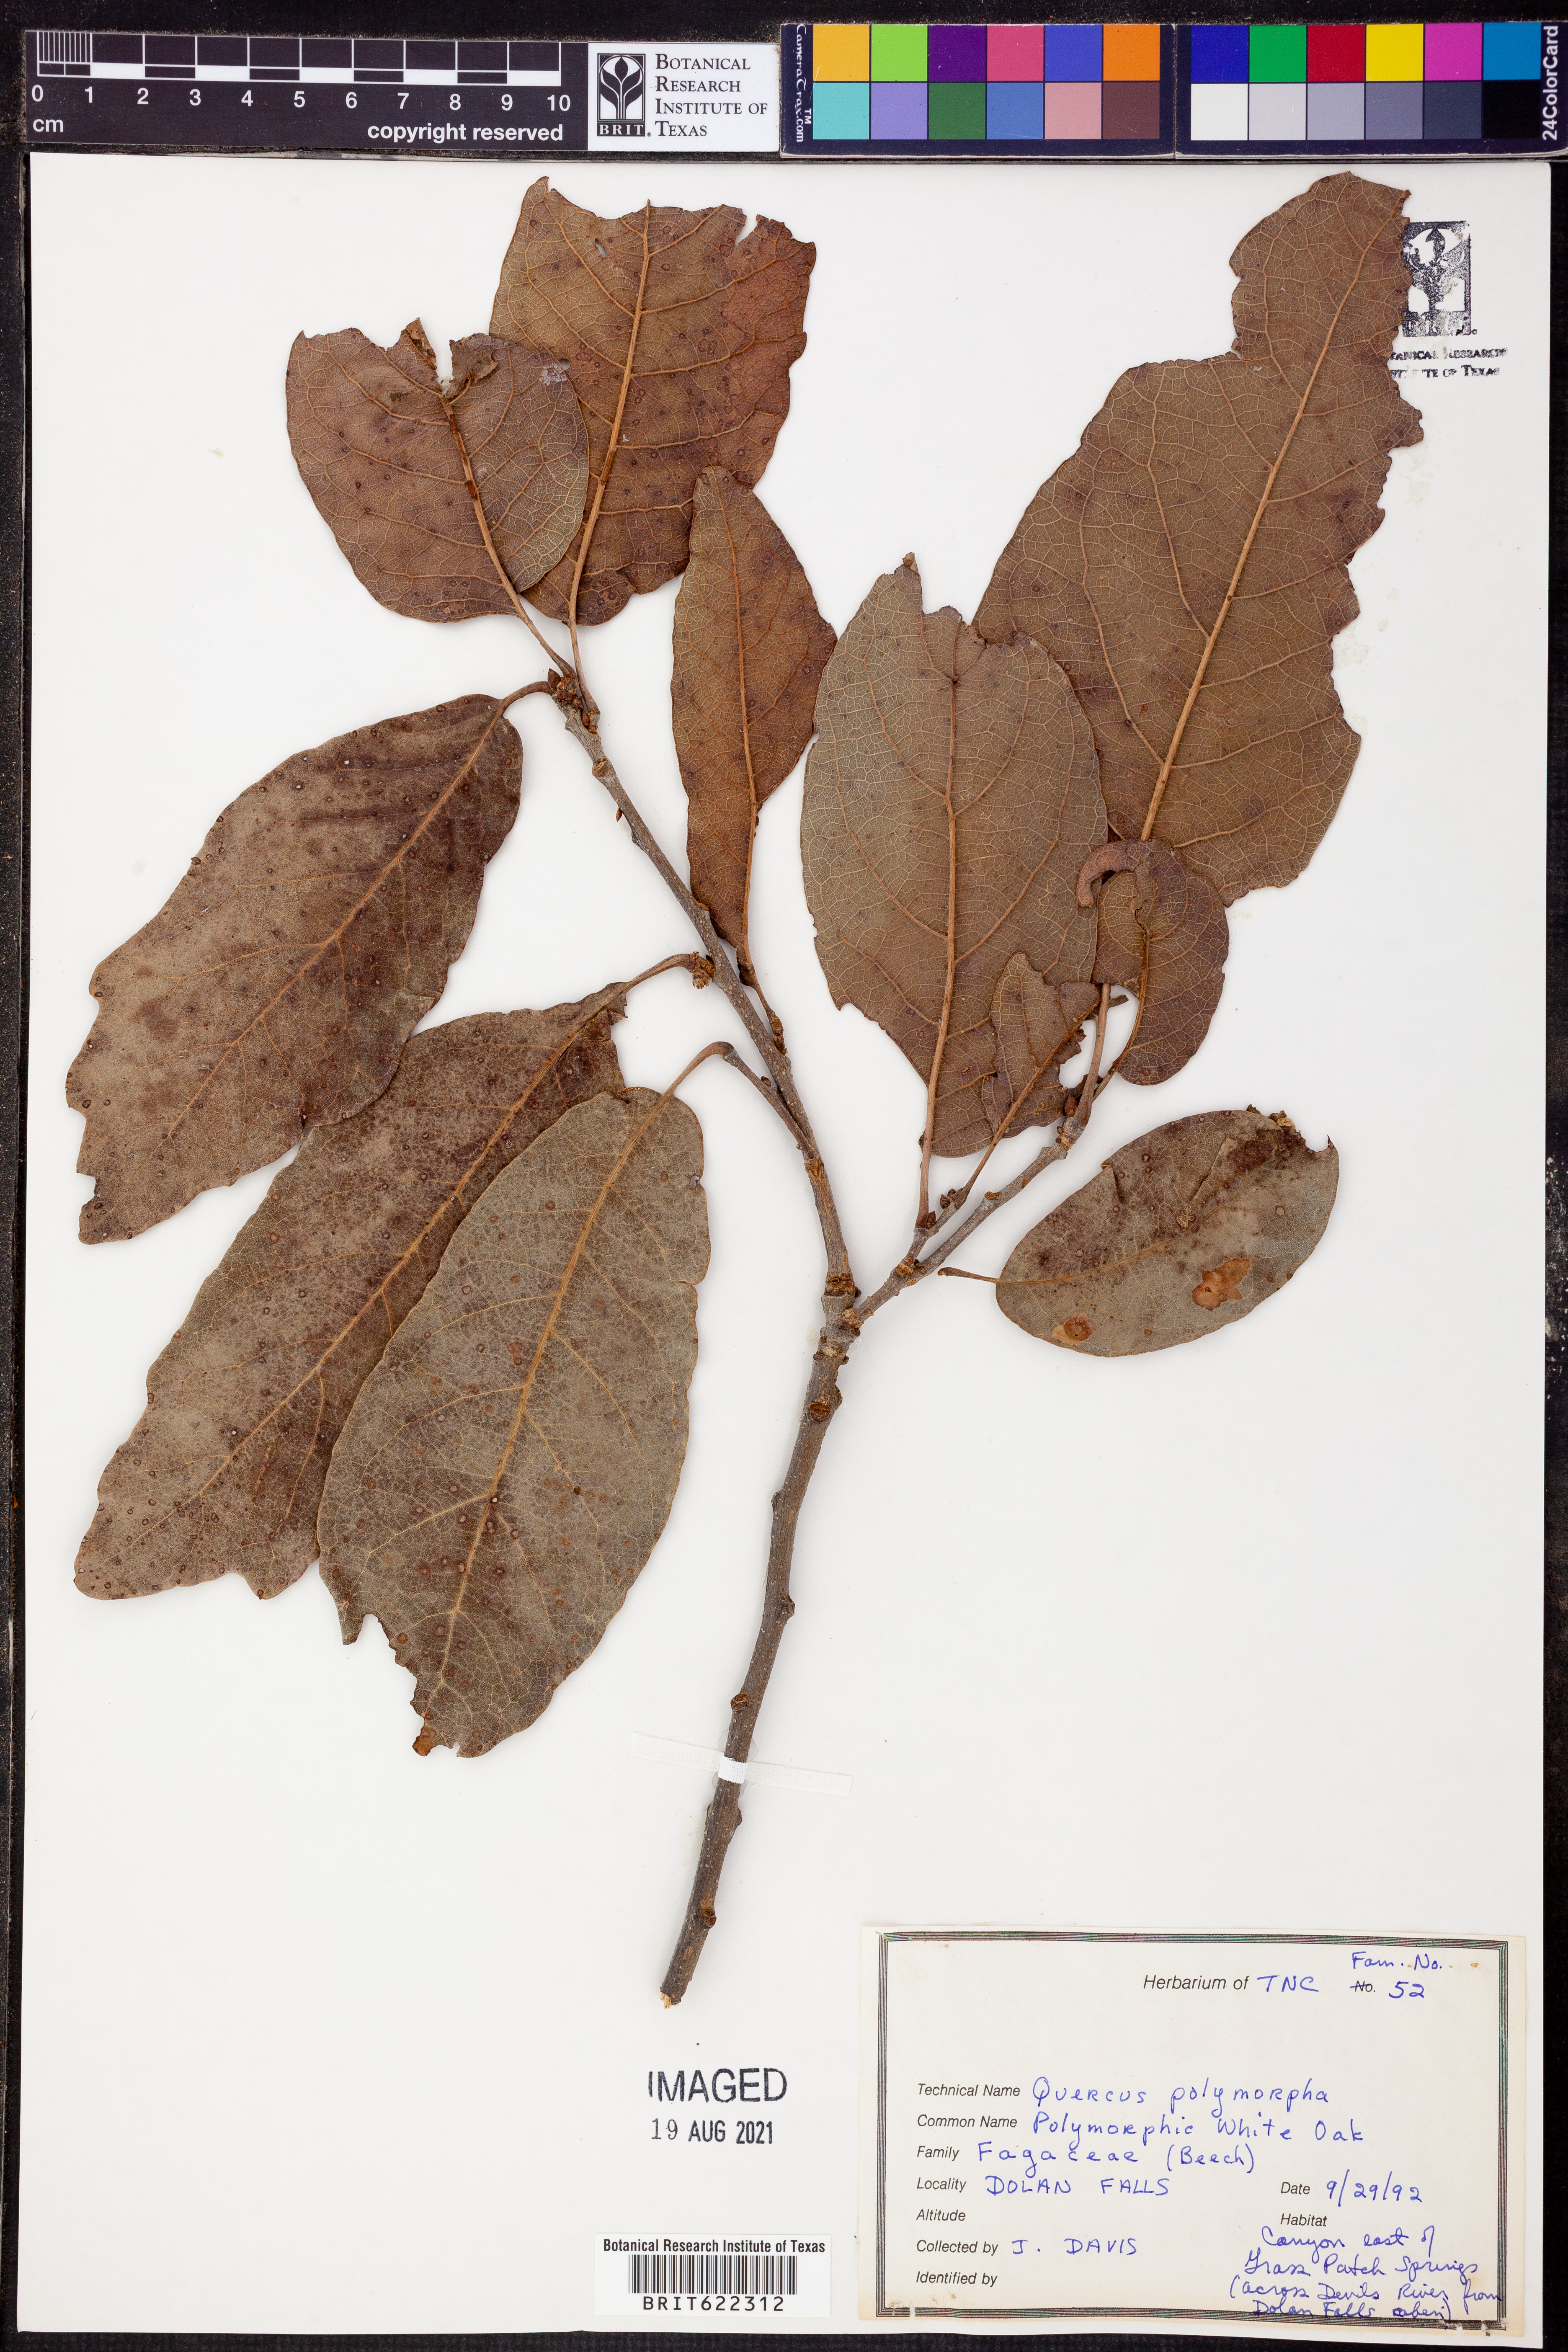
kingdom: Plantae
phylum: Tracheophyta
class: Magnoliopsida
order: Fagales
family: Fagaceae
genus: Quercus
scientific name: Quercus polymorpha
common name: Mexican white oak
